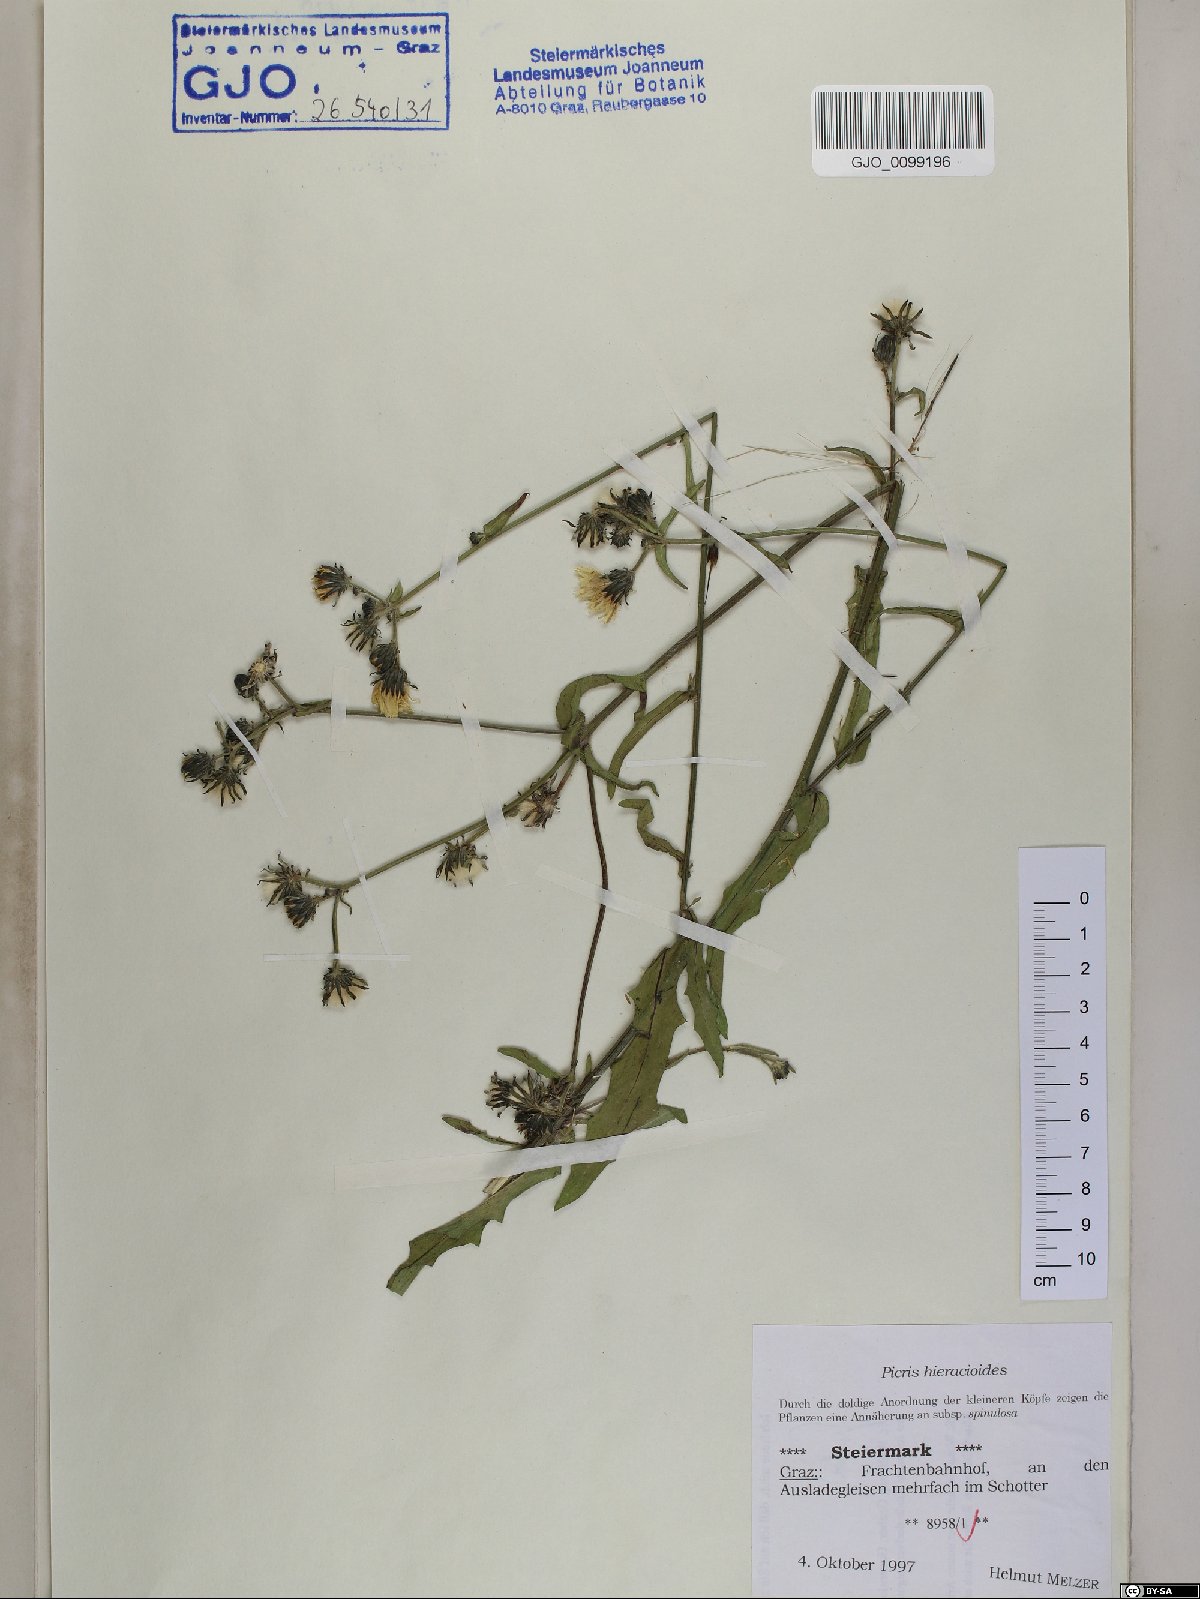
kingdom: Plantae
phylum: Tracheophyta
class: Magnoliopsida
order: Asterales
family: Asteraceae
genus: Picris
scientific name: Picris hieracioides
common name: Hawkweed oxtongue
